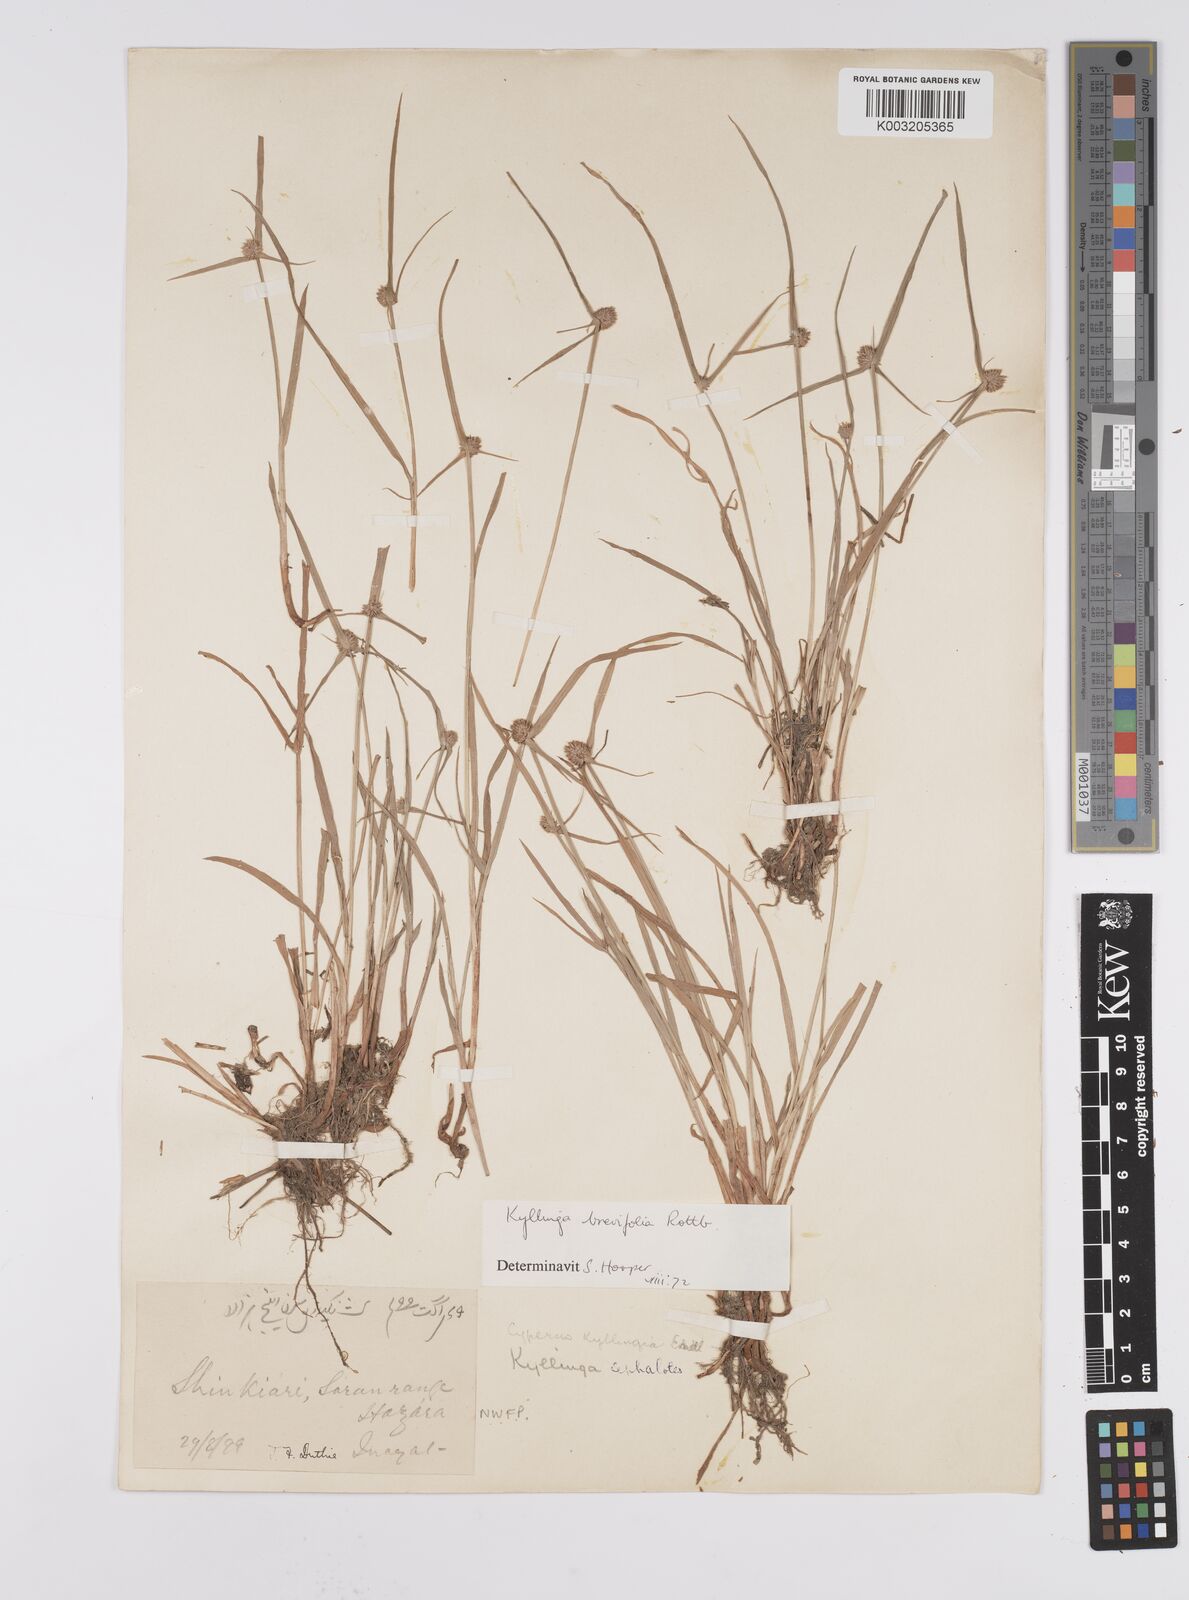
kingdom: Plantae
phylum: Tracheophyta
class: Liliopsida
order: Poales
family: Cyperaceae
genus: Cyperus
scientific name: Cyperus brevifolius
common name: Globe kyllinga
